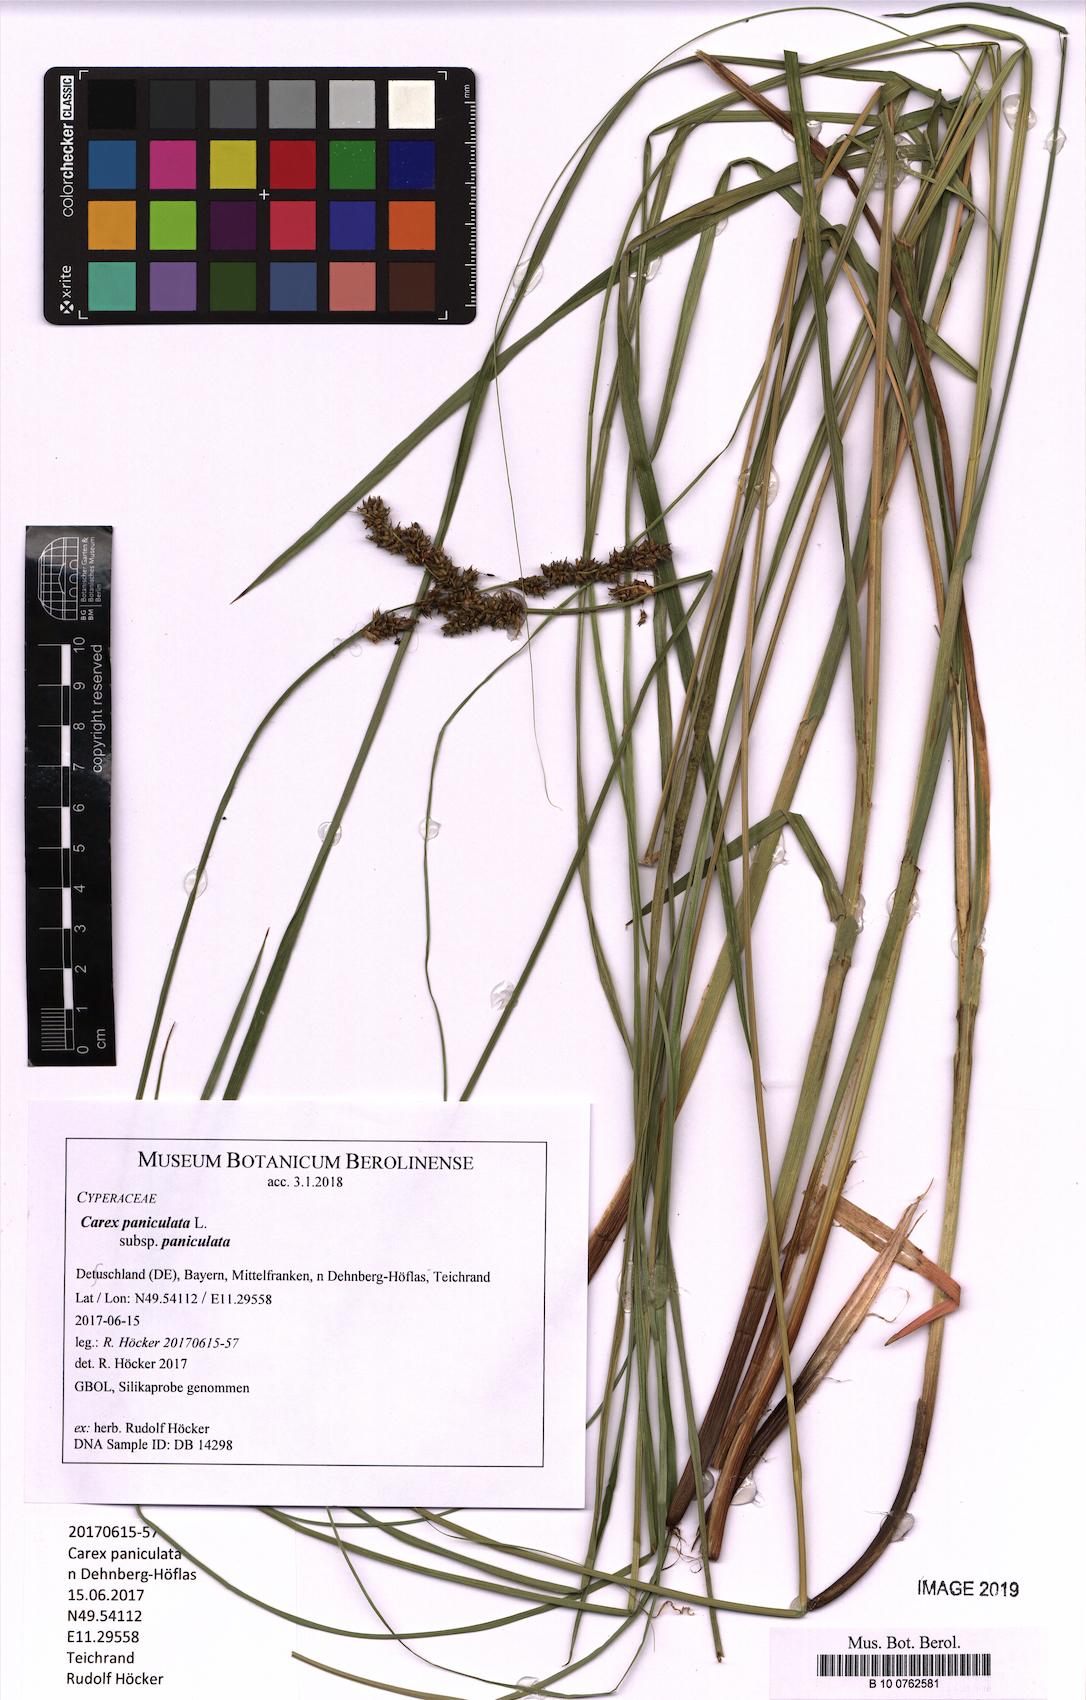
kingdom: Plantae
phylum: Tracheophyta
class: Liliopsida
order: Poales
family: Cyperaceae
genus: Carex
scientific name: Carex paniculata
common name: Greater tussock-sedge
